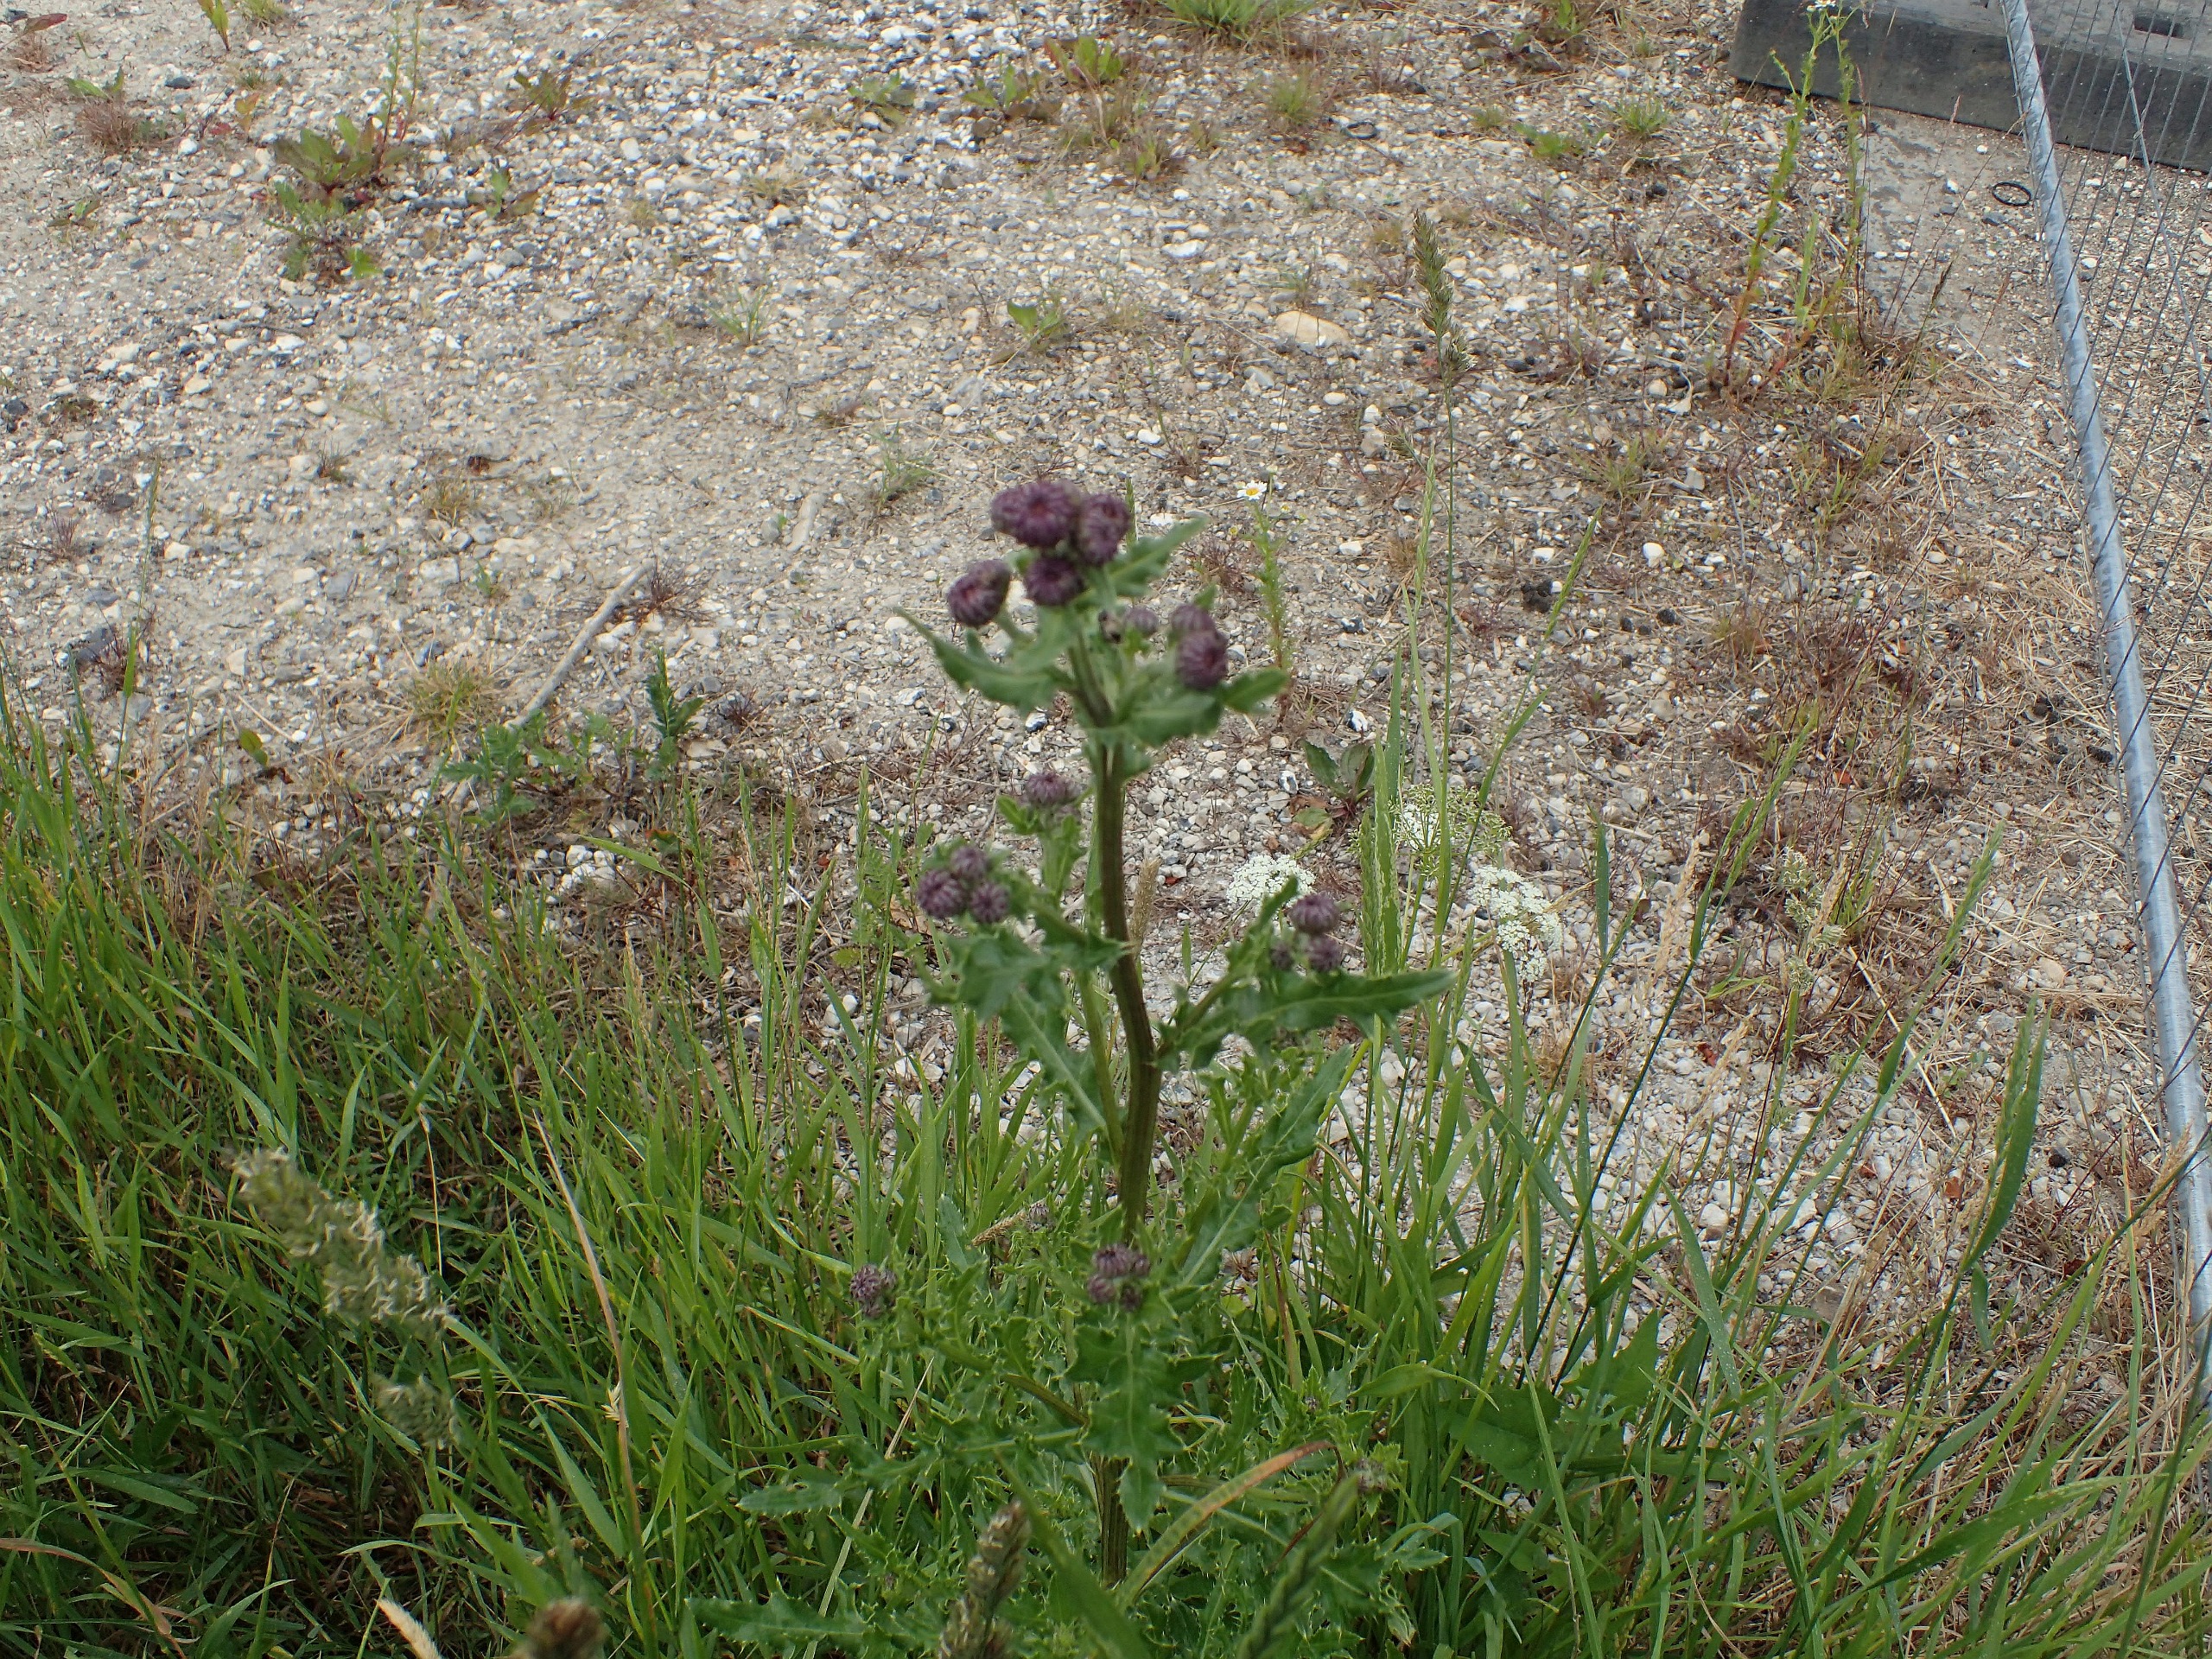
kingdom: Plantae
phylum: Tracheophyta
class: Magnoliopsida
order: Asterales
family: Asteraceae
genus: Cirsium
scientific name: Cirsium arvense
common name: Ager-tidsel
